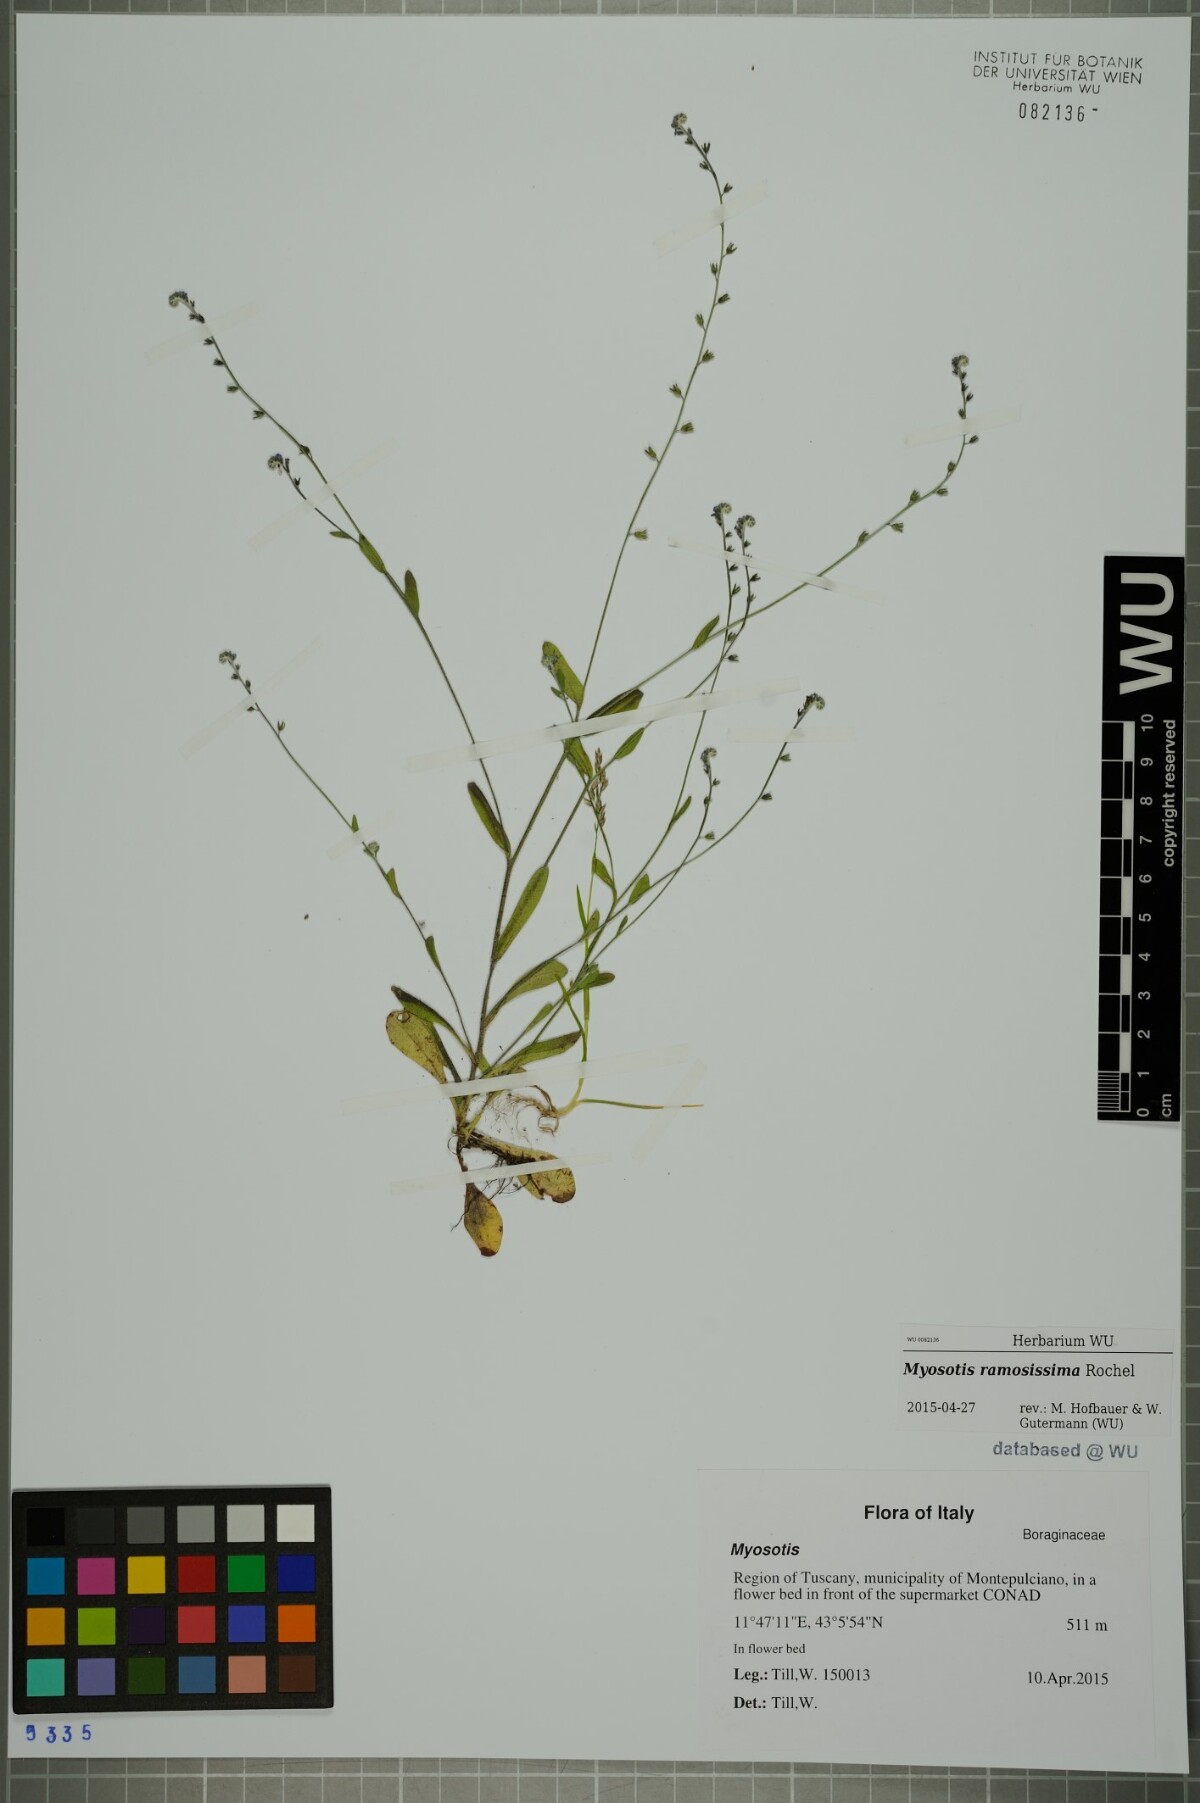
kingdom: Plantae
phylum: Tracheophyta
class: Magnoliopsida
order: Boraginales
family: Boraginaceae
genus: Myosotis
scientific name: Myosotis ramosissima
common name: Early forget-me-not
